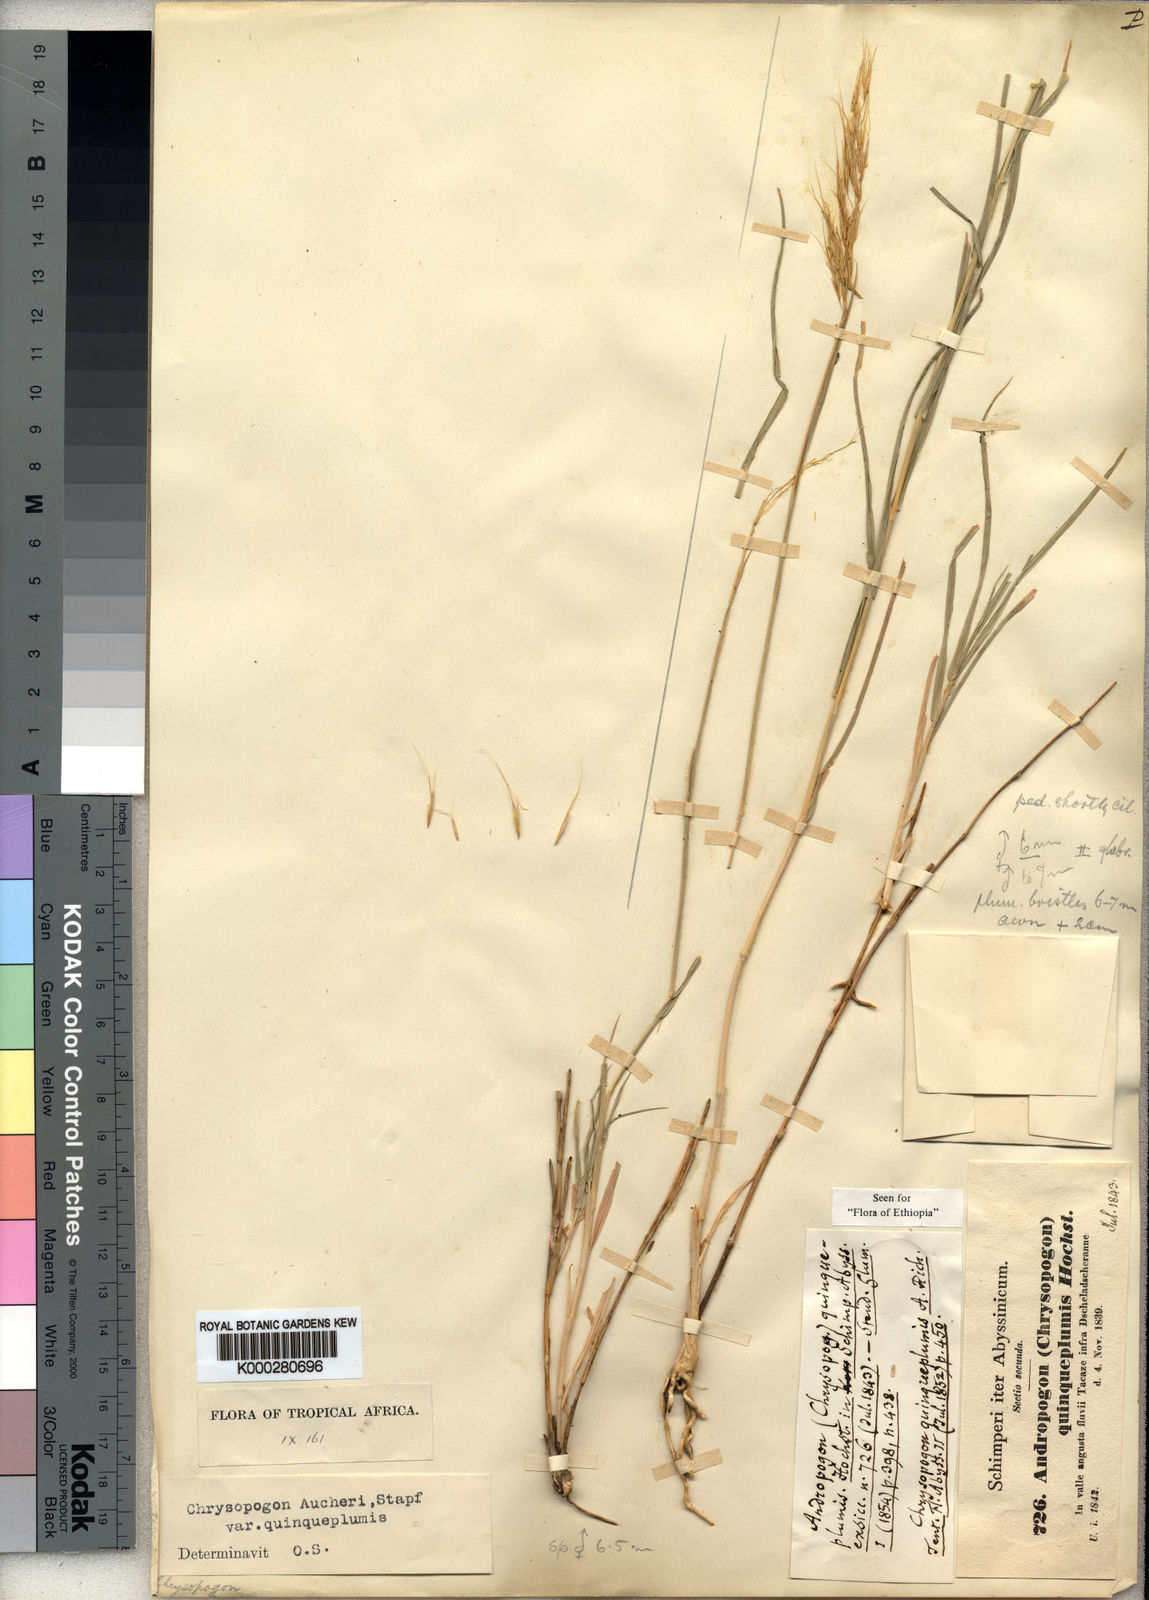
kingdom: Plantae
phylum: Tracheophyta
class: Liliopsida
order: Poales
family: Poaceae
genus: Chrysopogon
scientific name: Chrysopogon plumulosus
